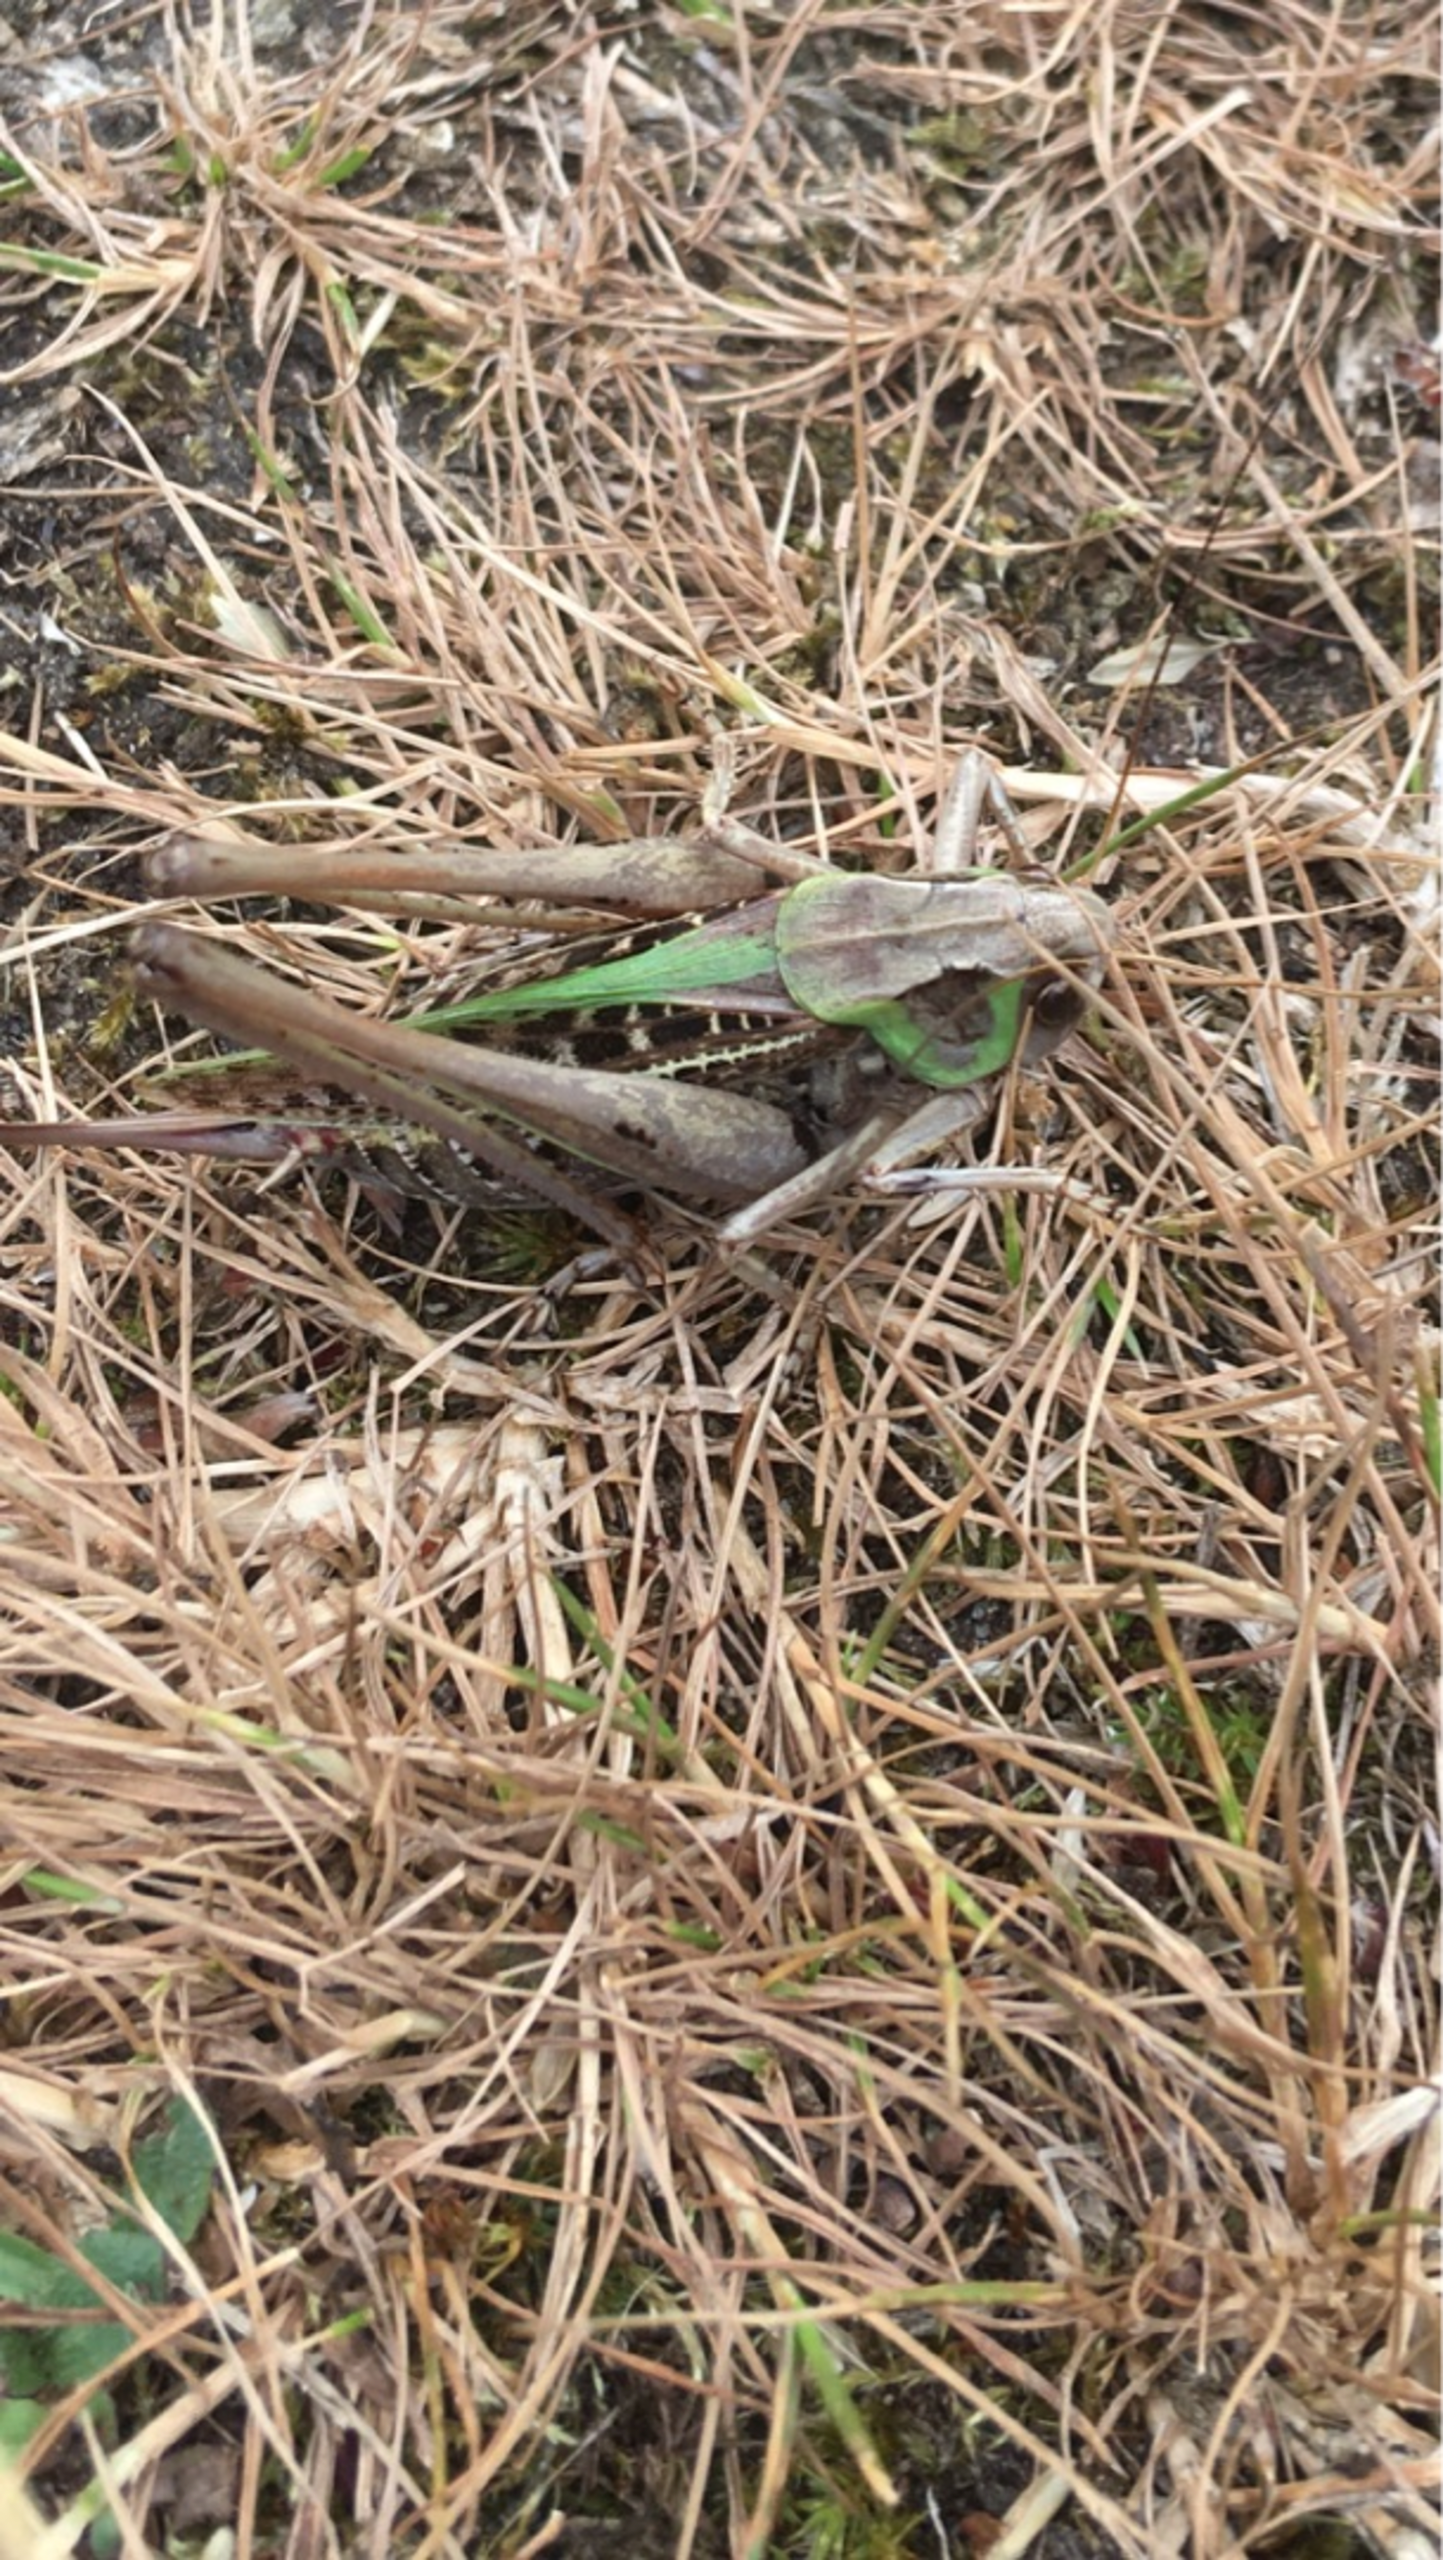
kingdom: Animalia
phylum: Arthropoda
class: Insecta
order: Orthoptera
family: Tettigoniidae
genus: Decticus
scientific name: Decticus verrucivorus
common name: Vortebider
